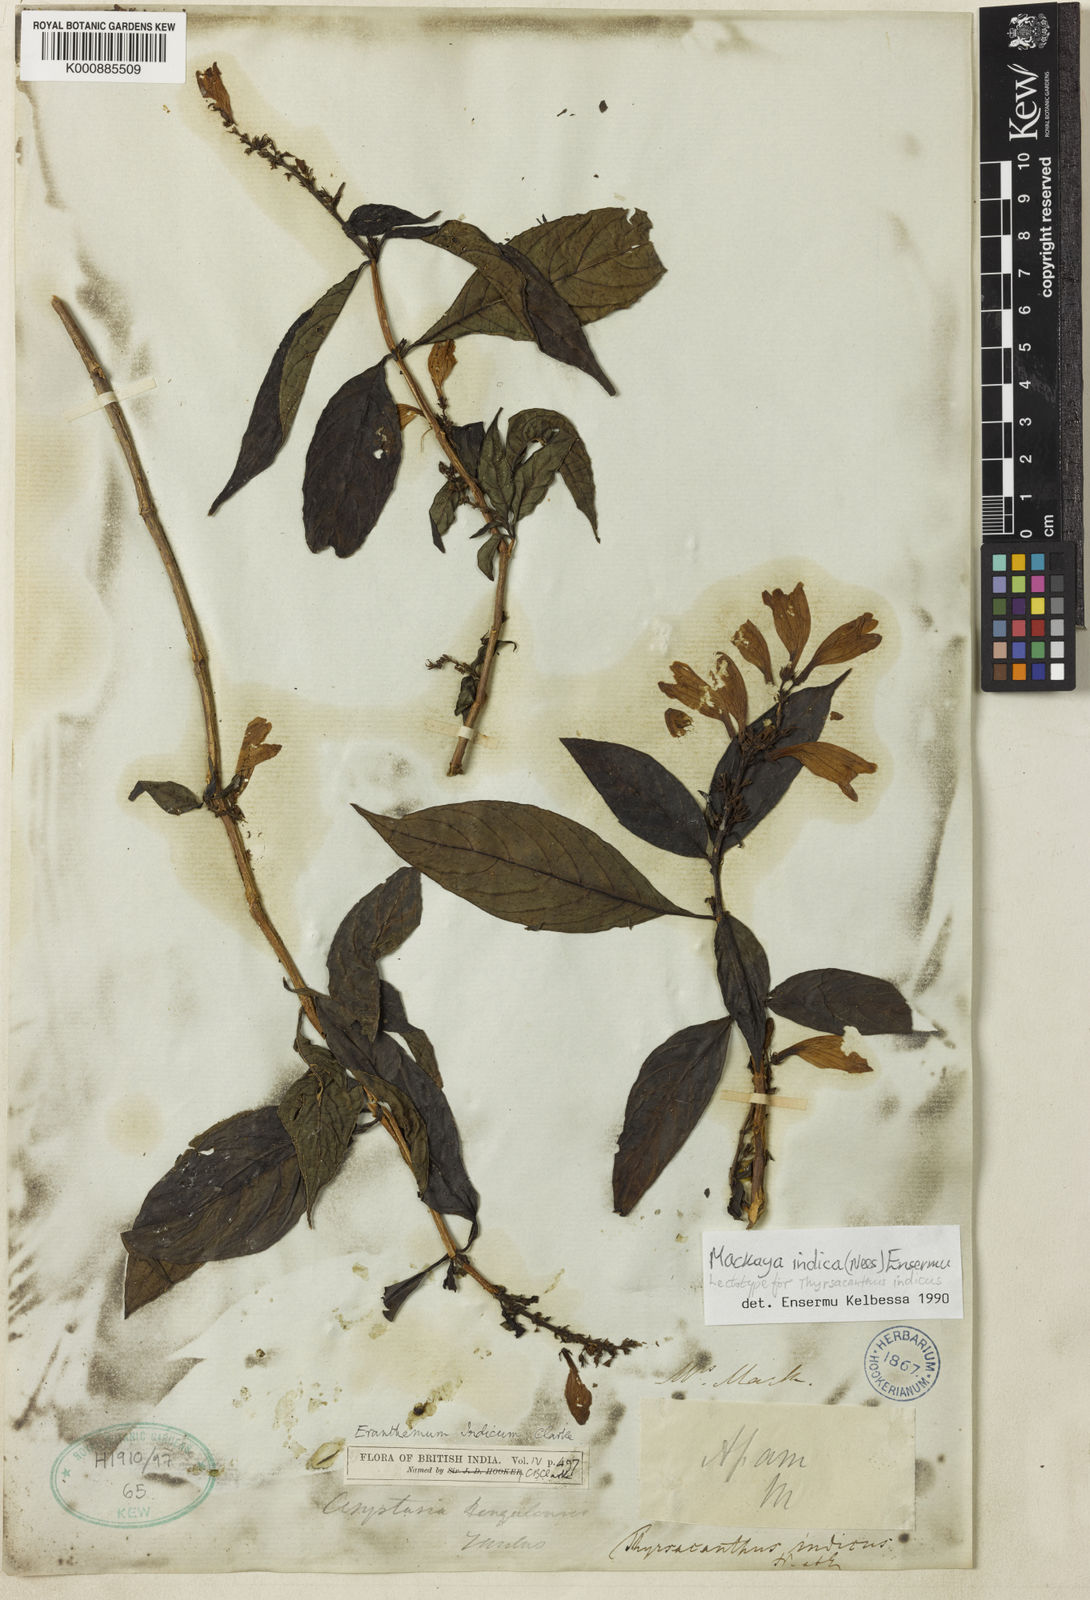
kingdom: Plantae
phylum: Tracheophyta
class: Magnoliopsida
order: Lamiales
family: Acanthaceae
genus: Mackaya
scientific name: Mackaya indica
